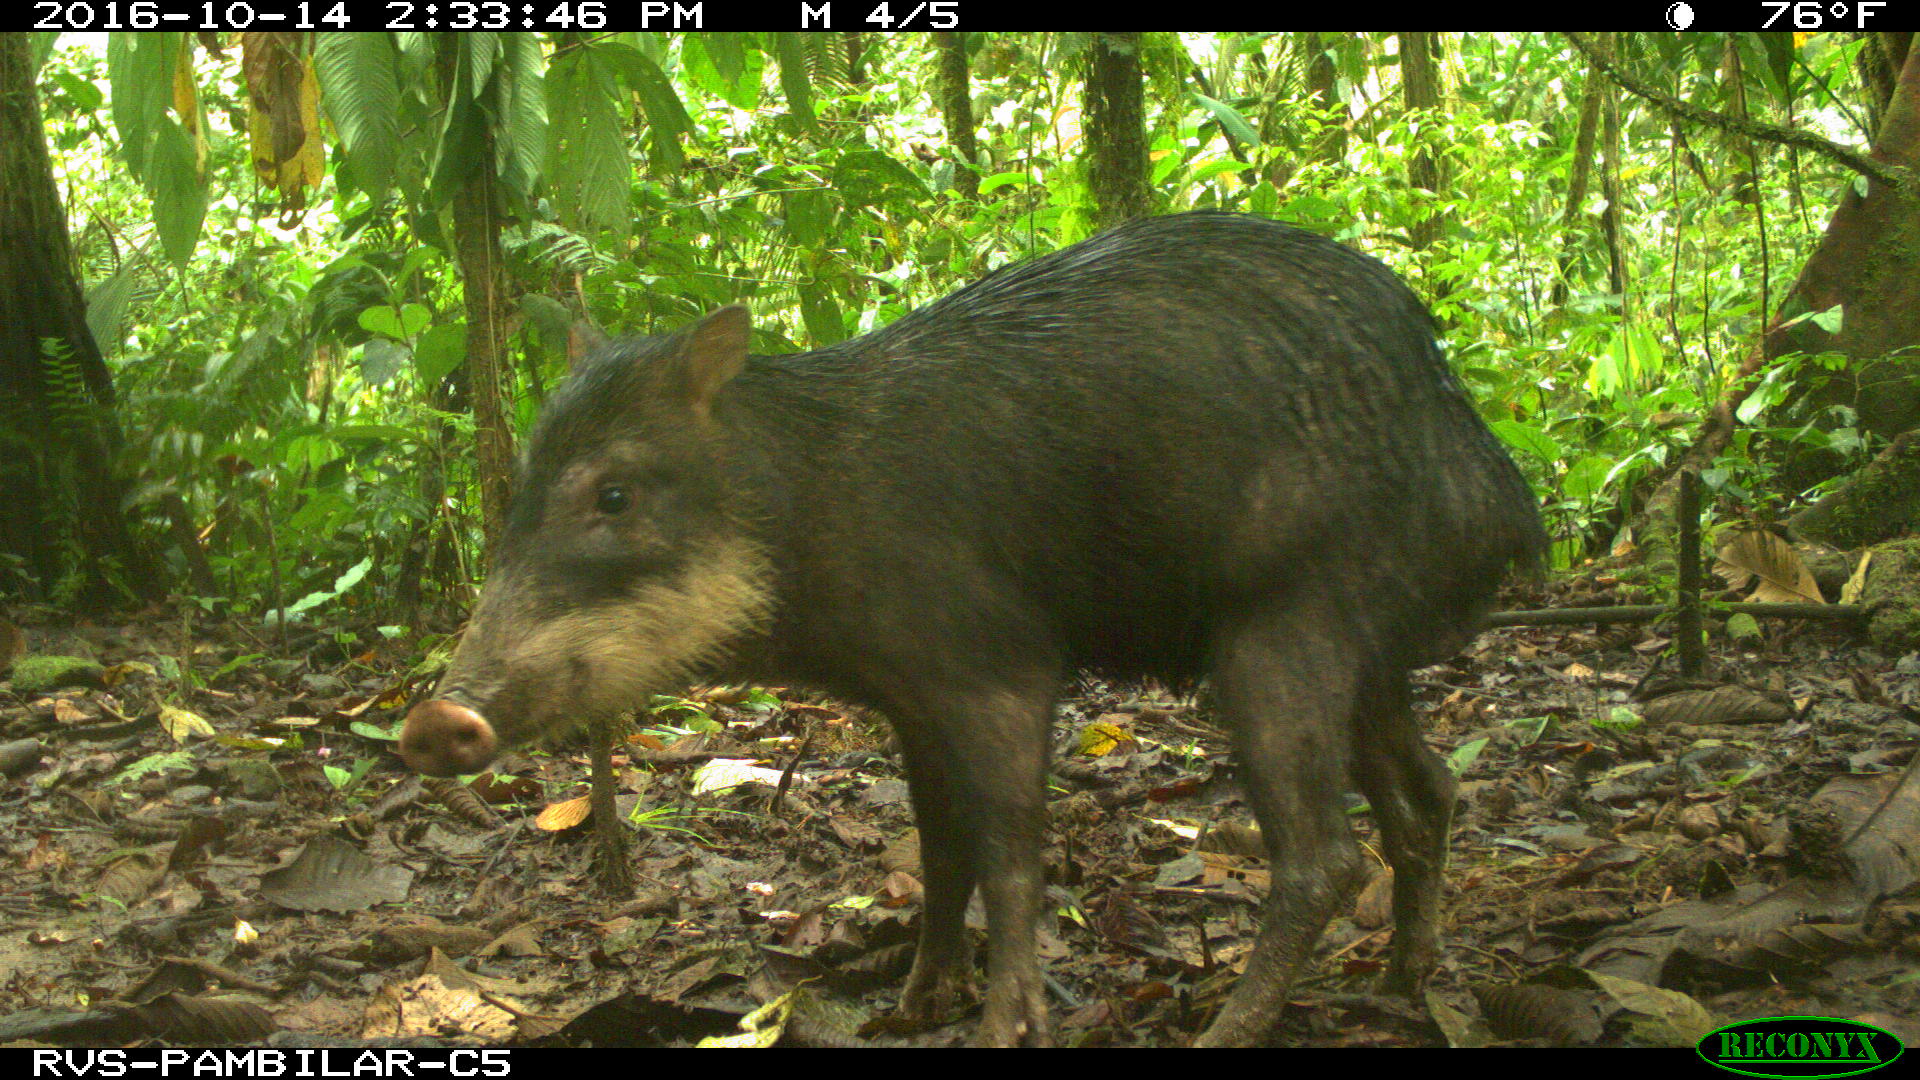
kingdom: Animalia
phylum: Chordata
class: Mammalia
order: Artiodactyla
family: Tayassuidae
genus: Tayassu
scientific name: Tayassu pecari
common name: White-lipped peccary
